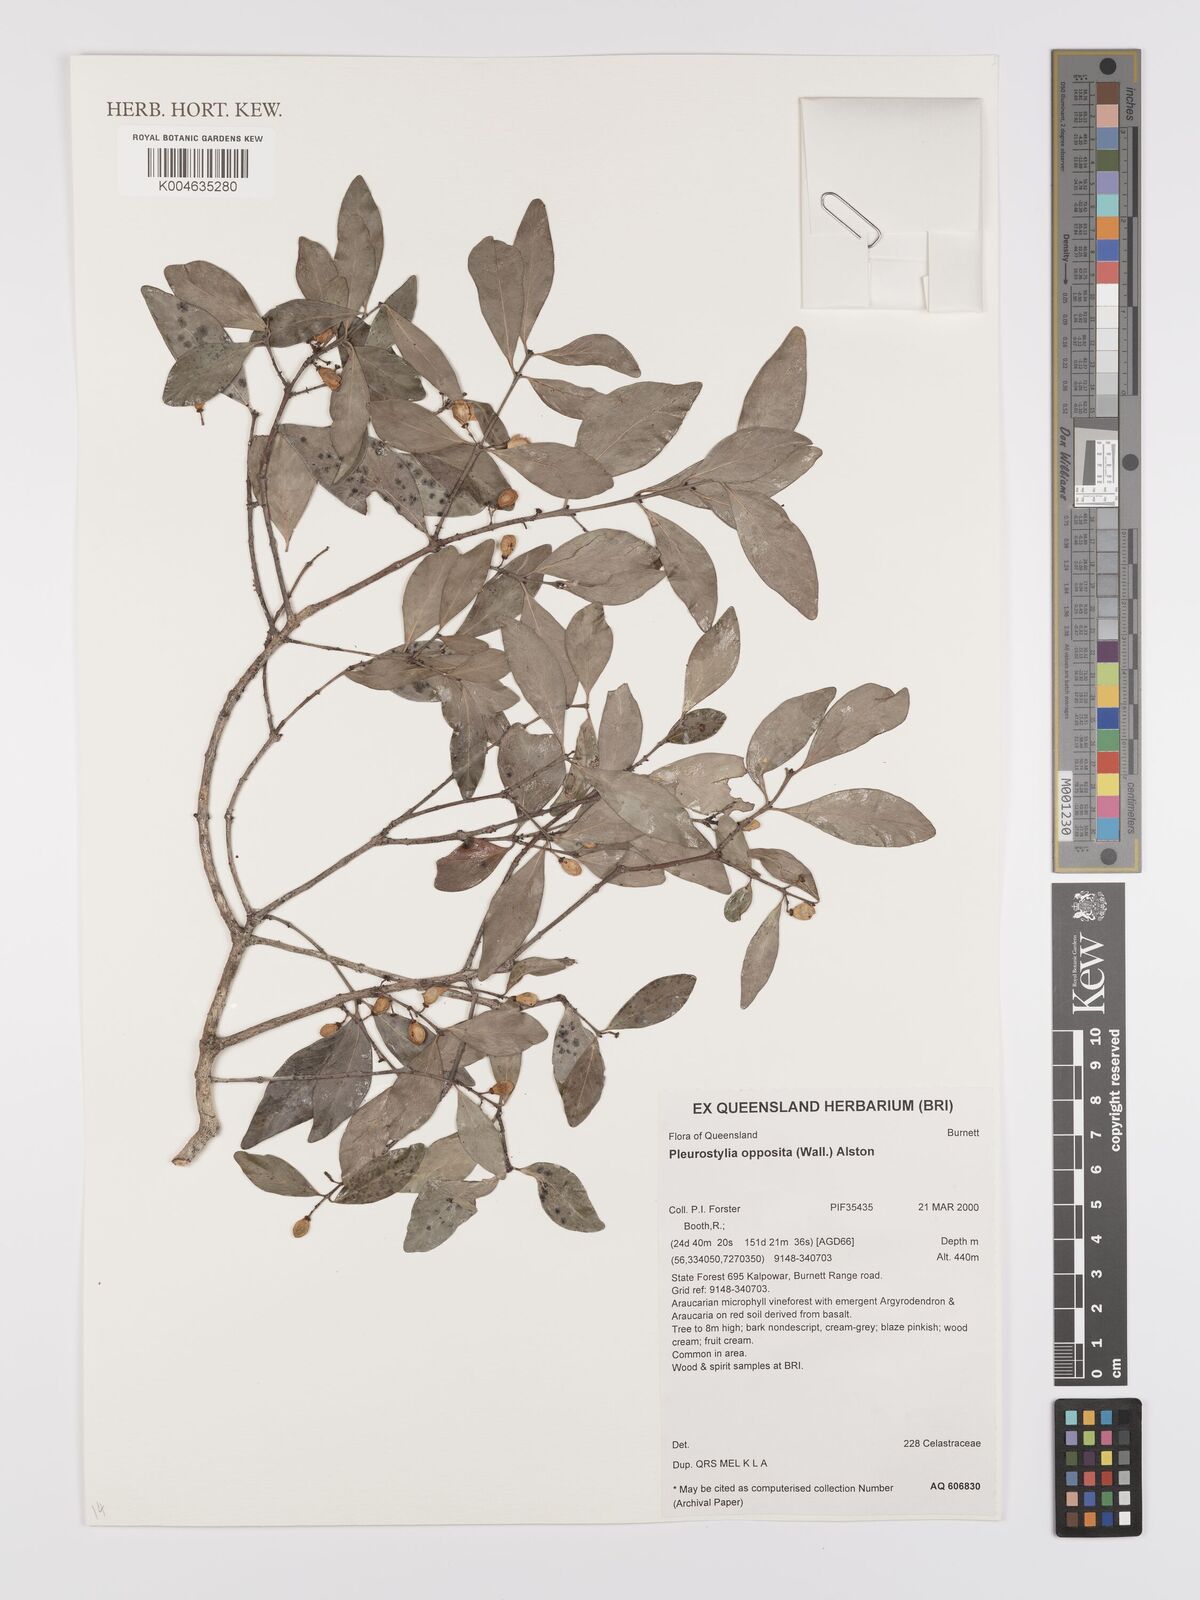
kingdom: Plantae
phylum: Tracheophyta
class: Magnoliopsida
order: Celastrales
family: Celastraceae
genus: Pleurostylia
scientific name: Pleurostylia opposita
